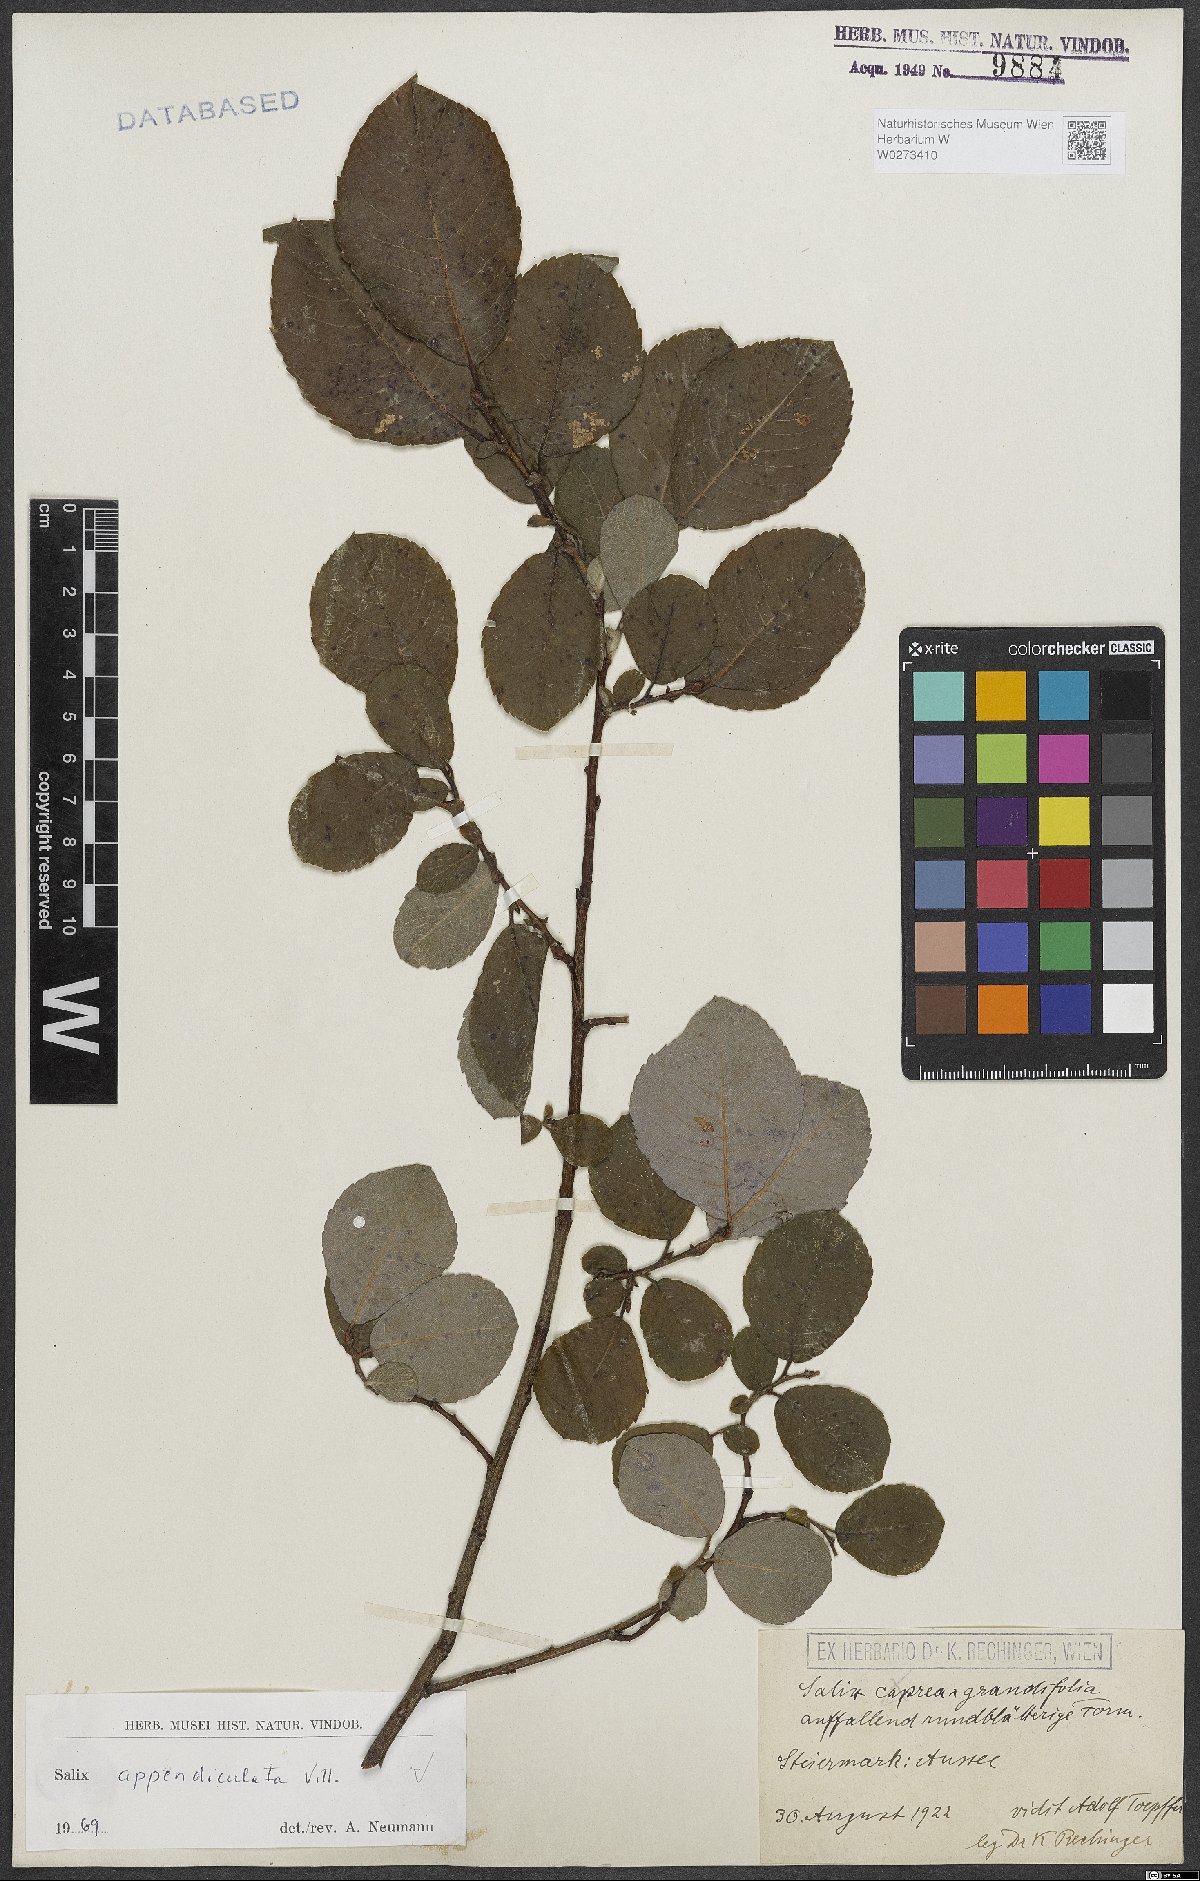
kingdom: Plantae
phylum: Tracheophyta
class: Magnoliopsida
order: Malpighiales
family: Salicaceae
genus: Salix
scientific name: Salix appendiculata
